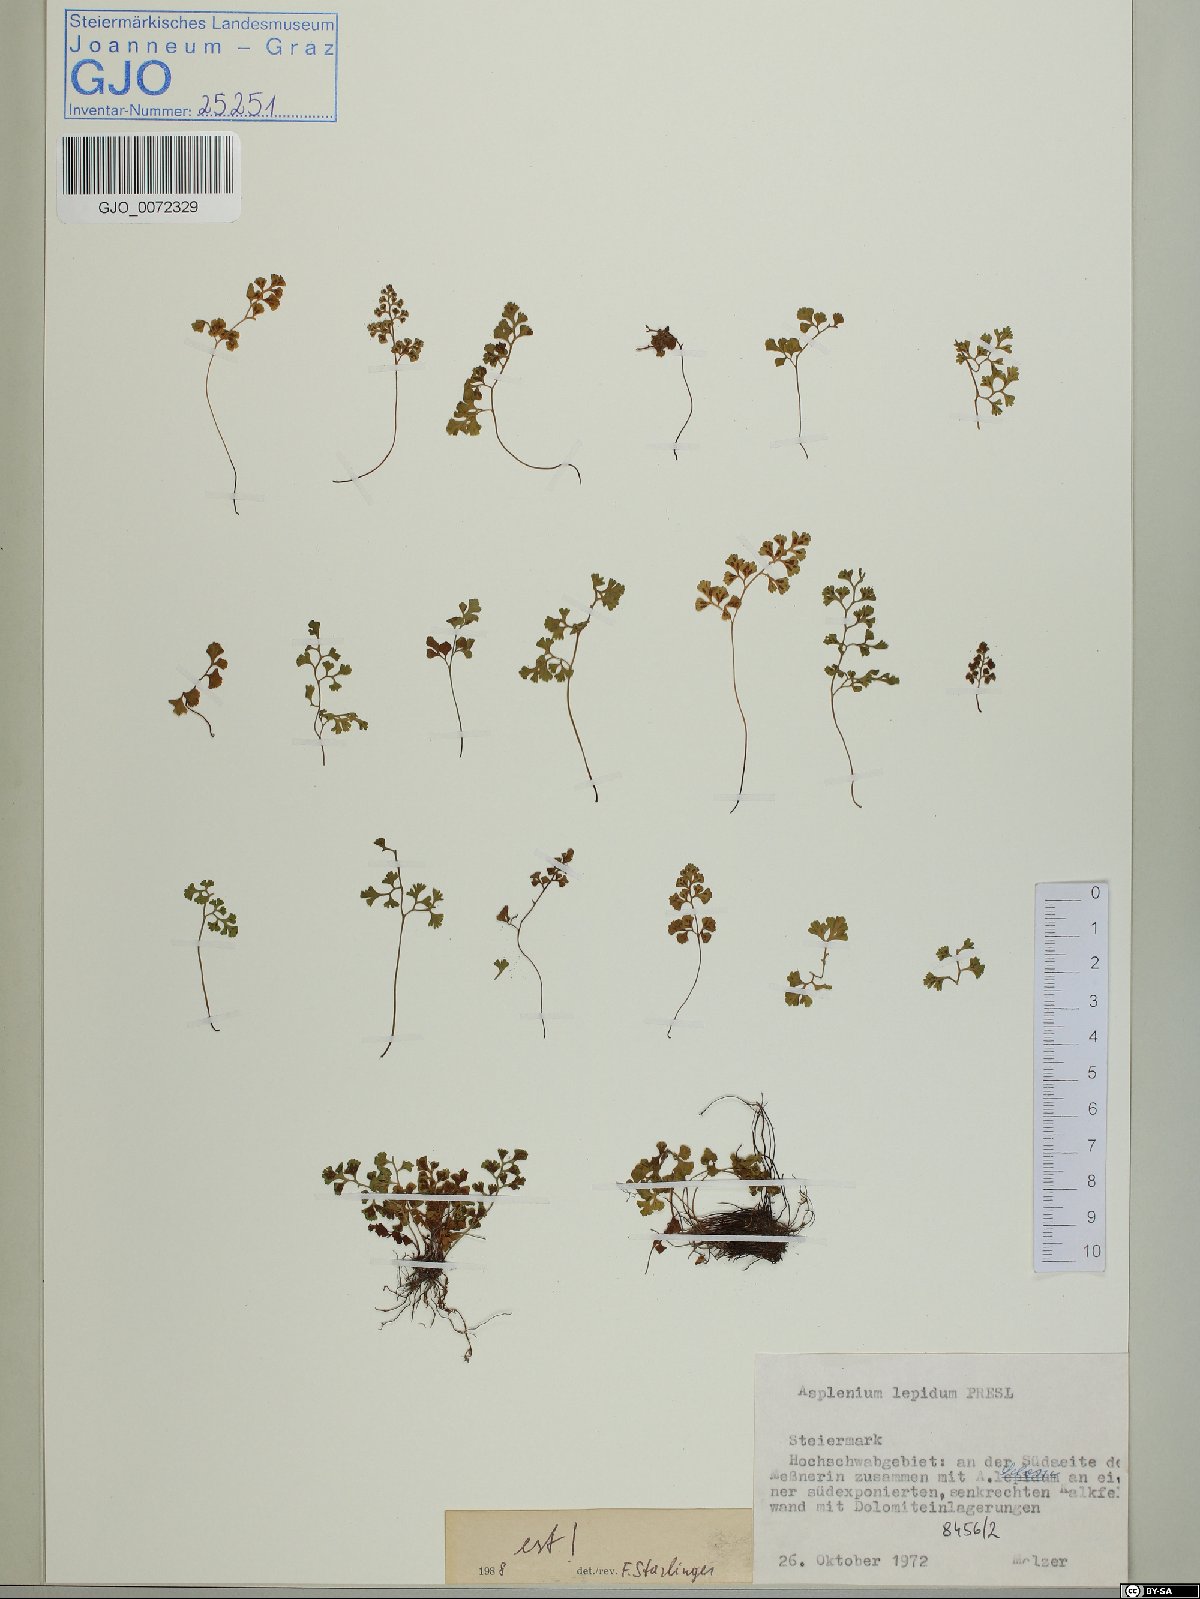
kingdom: Plantae
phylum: Tracheophyta
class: Polypodiopsida
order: Polypodiales
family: Aspleniaceae
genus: Asplenium
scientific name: Asplenium lepidum
